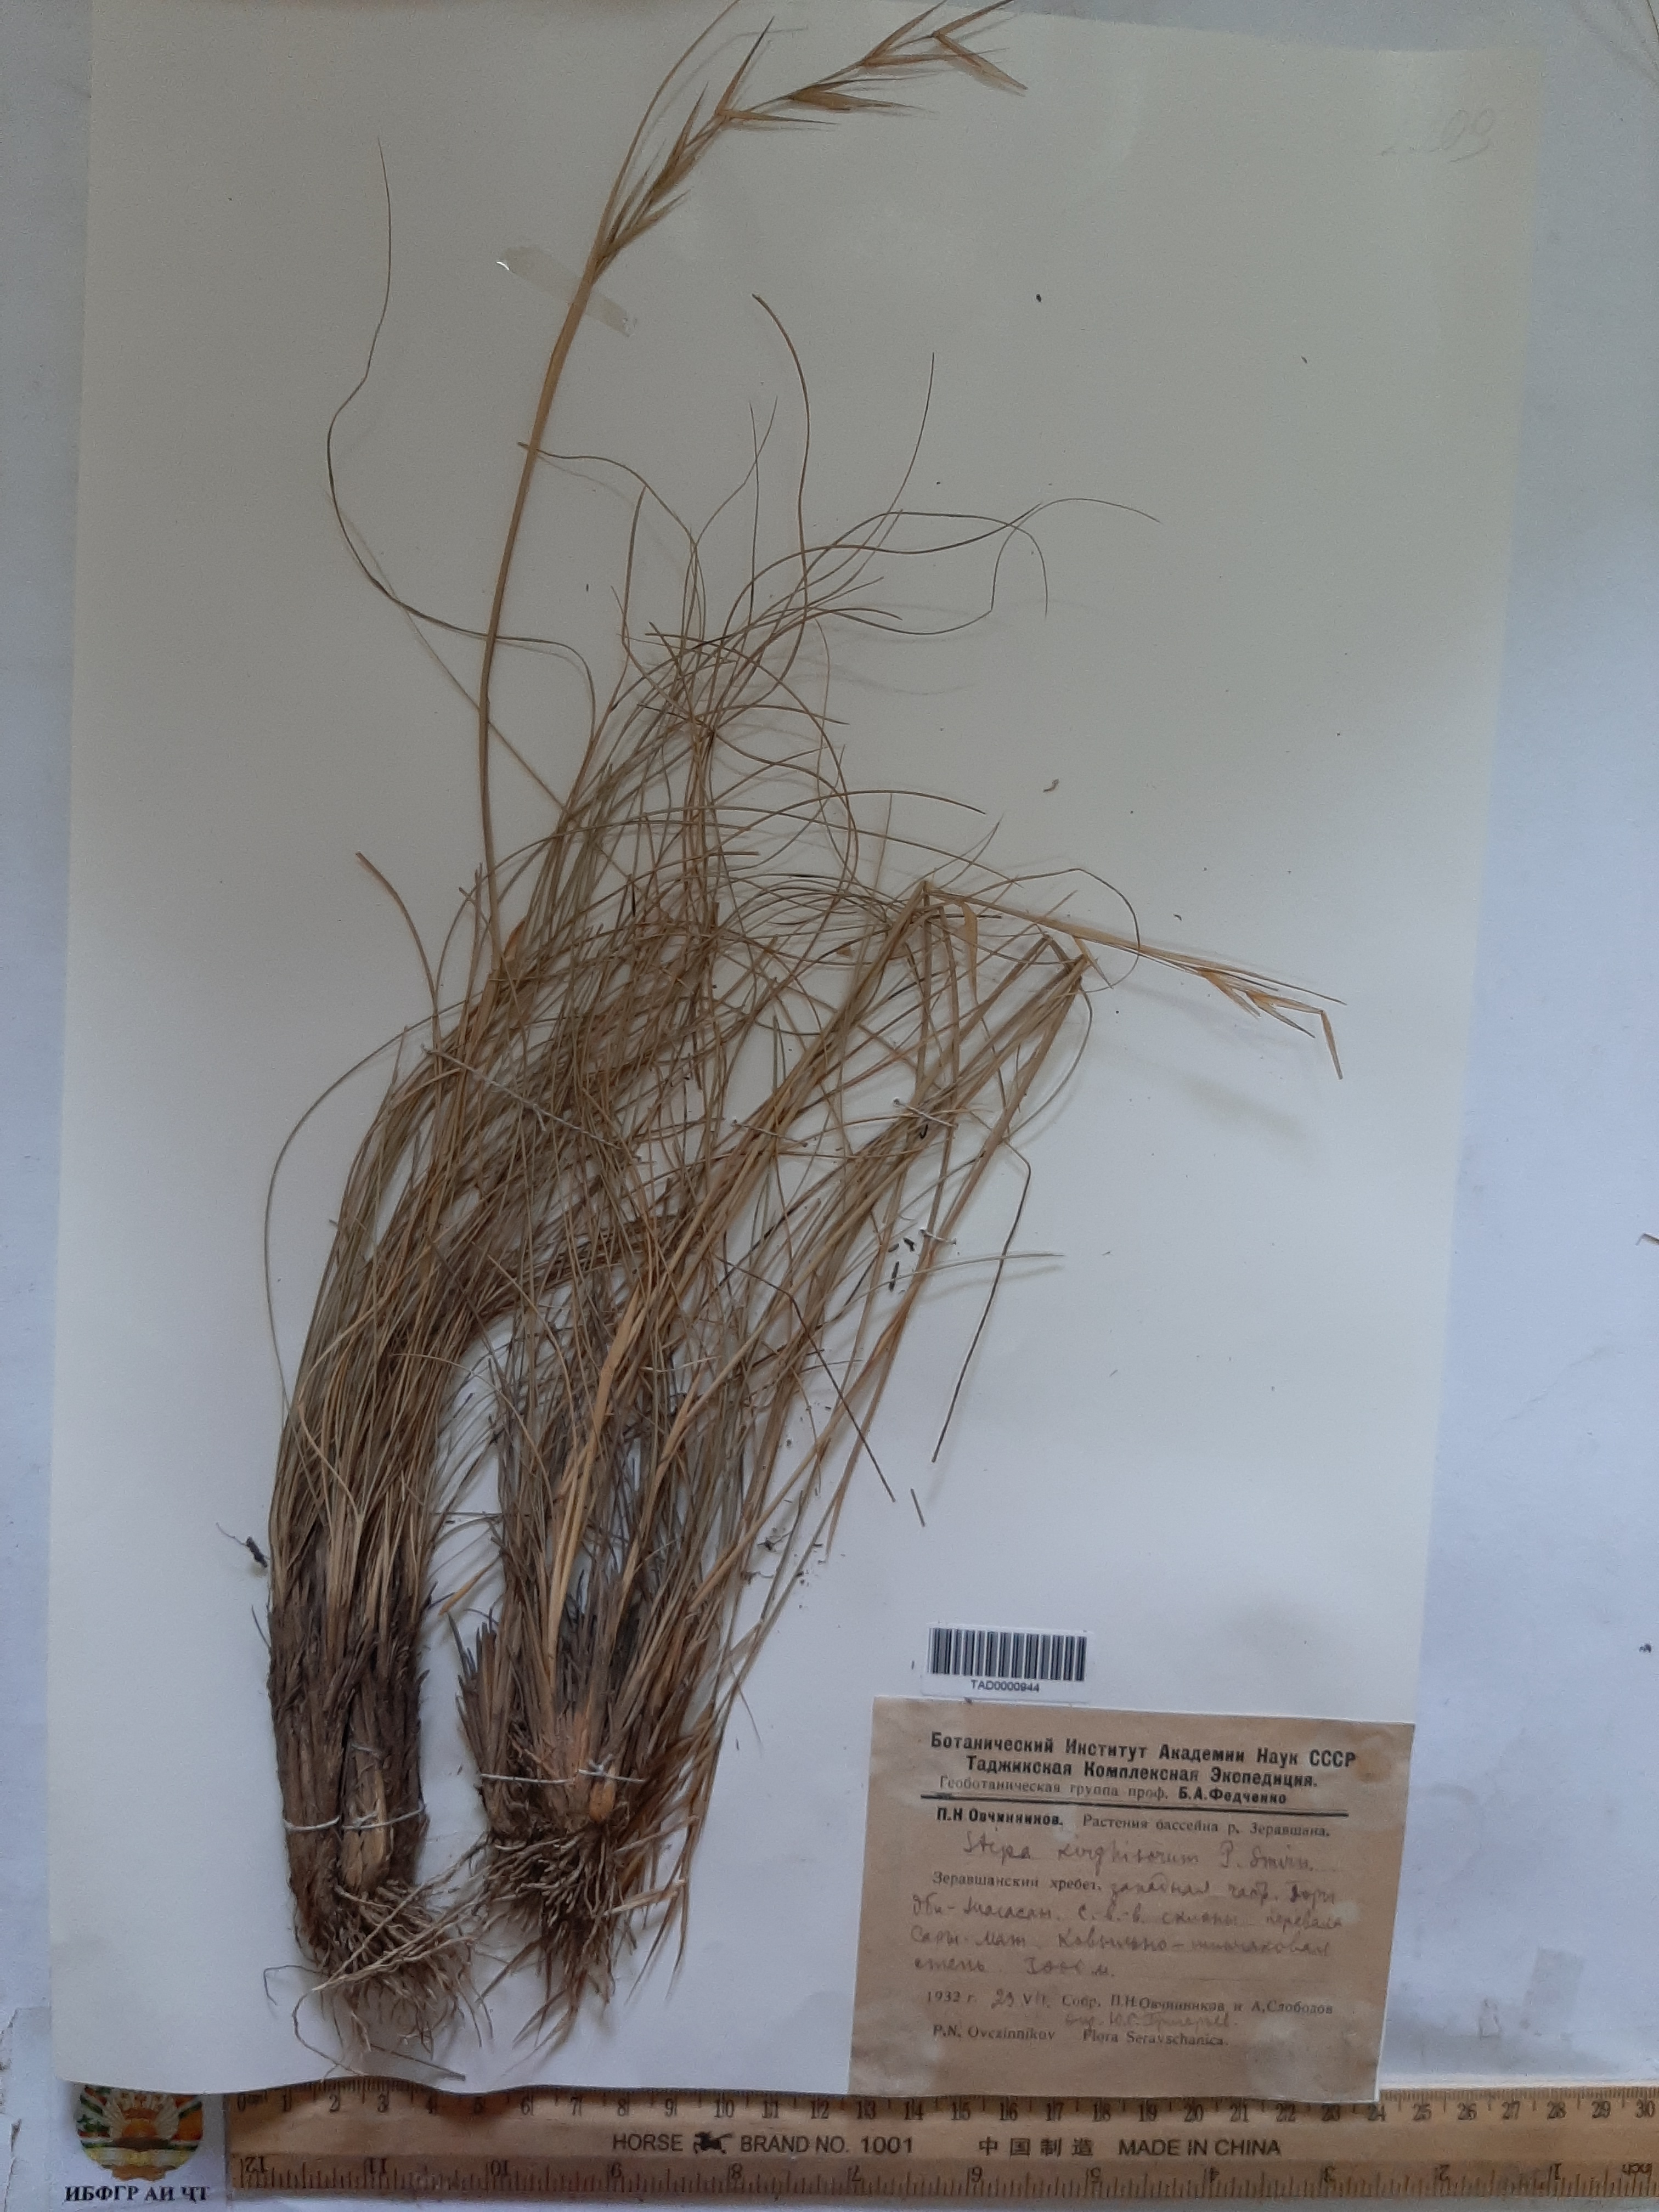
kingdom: Plantae
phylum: Tracheophyta
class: Liliopsida
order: Poales
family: Poaceae
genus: Stipa
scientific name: Stipa kirghisorum
